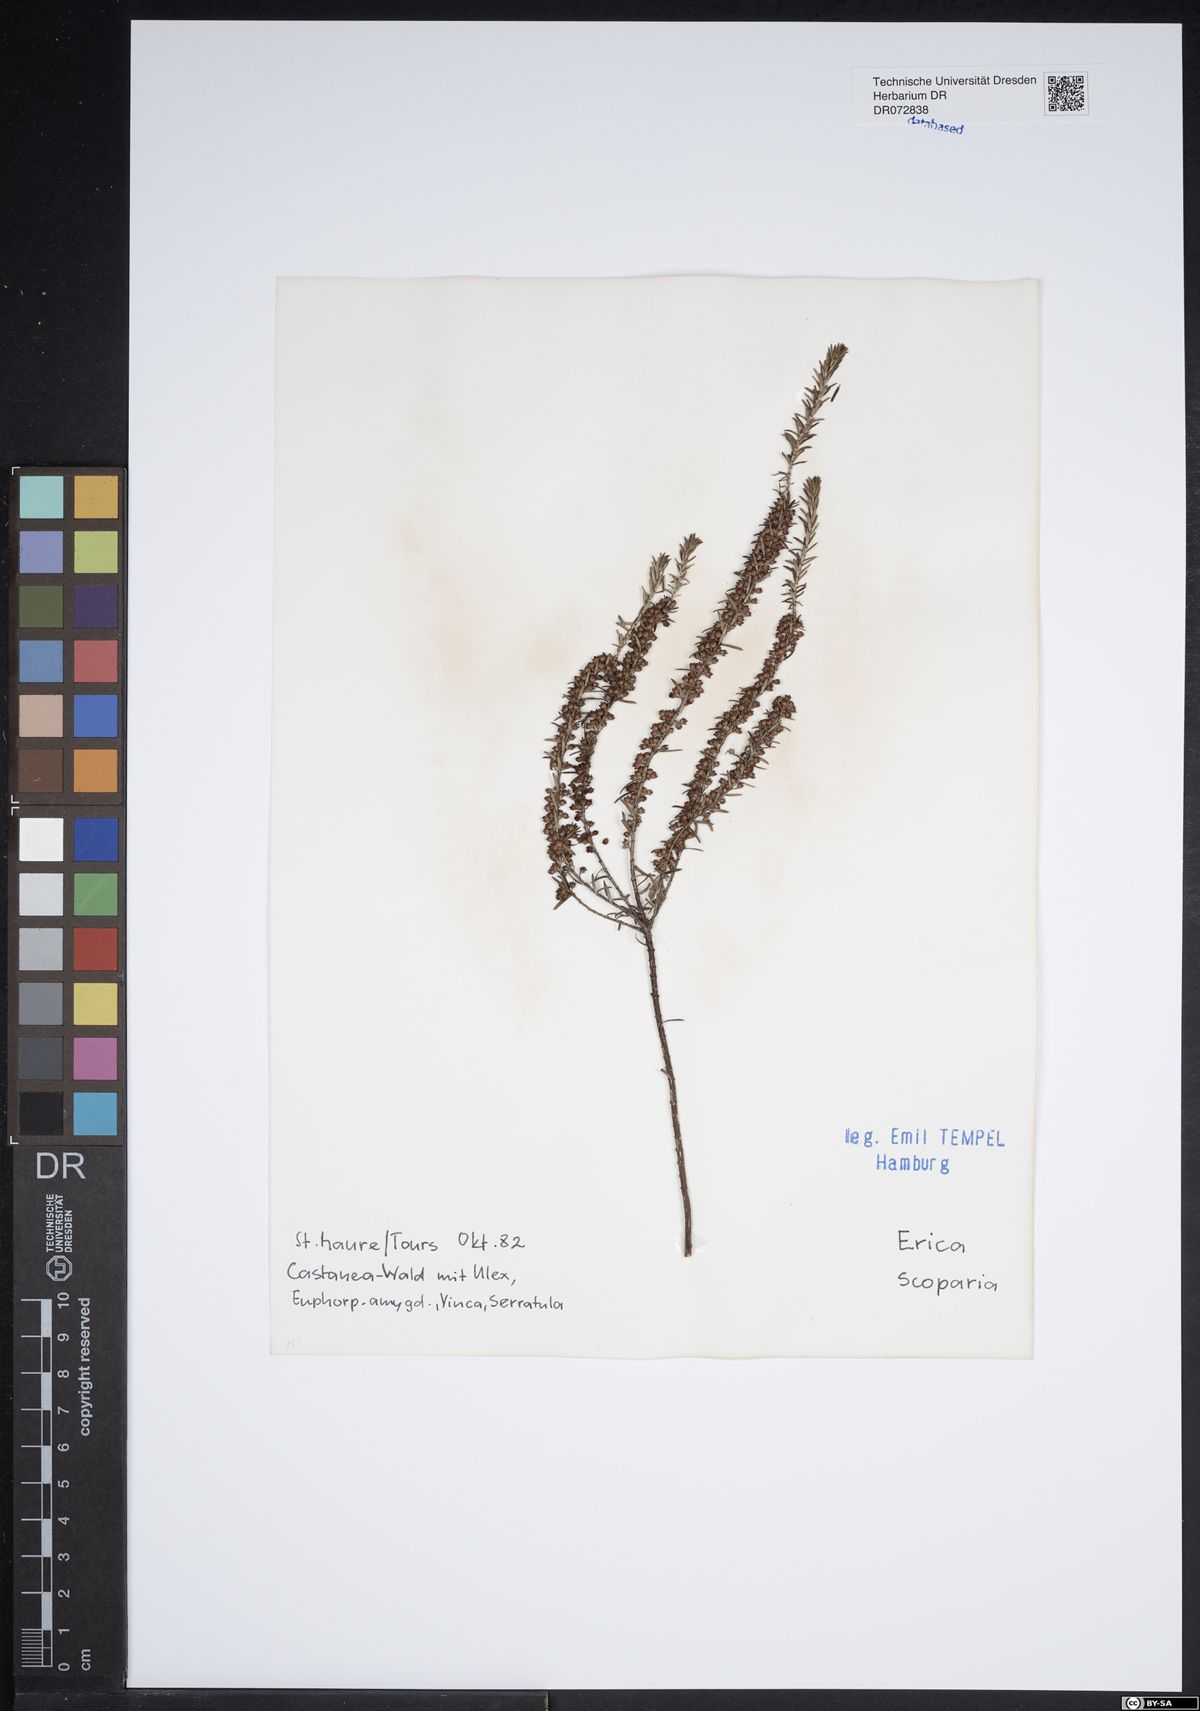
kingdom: Plantae
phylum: Tracheophyta
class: Magnoliopsida
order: Ericales
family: Ericaceae
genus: Erica
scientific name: Erica scoparia
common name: Green heather
